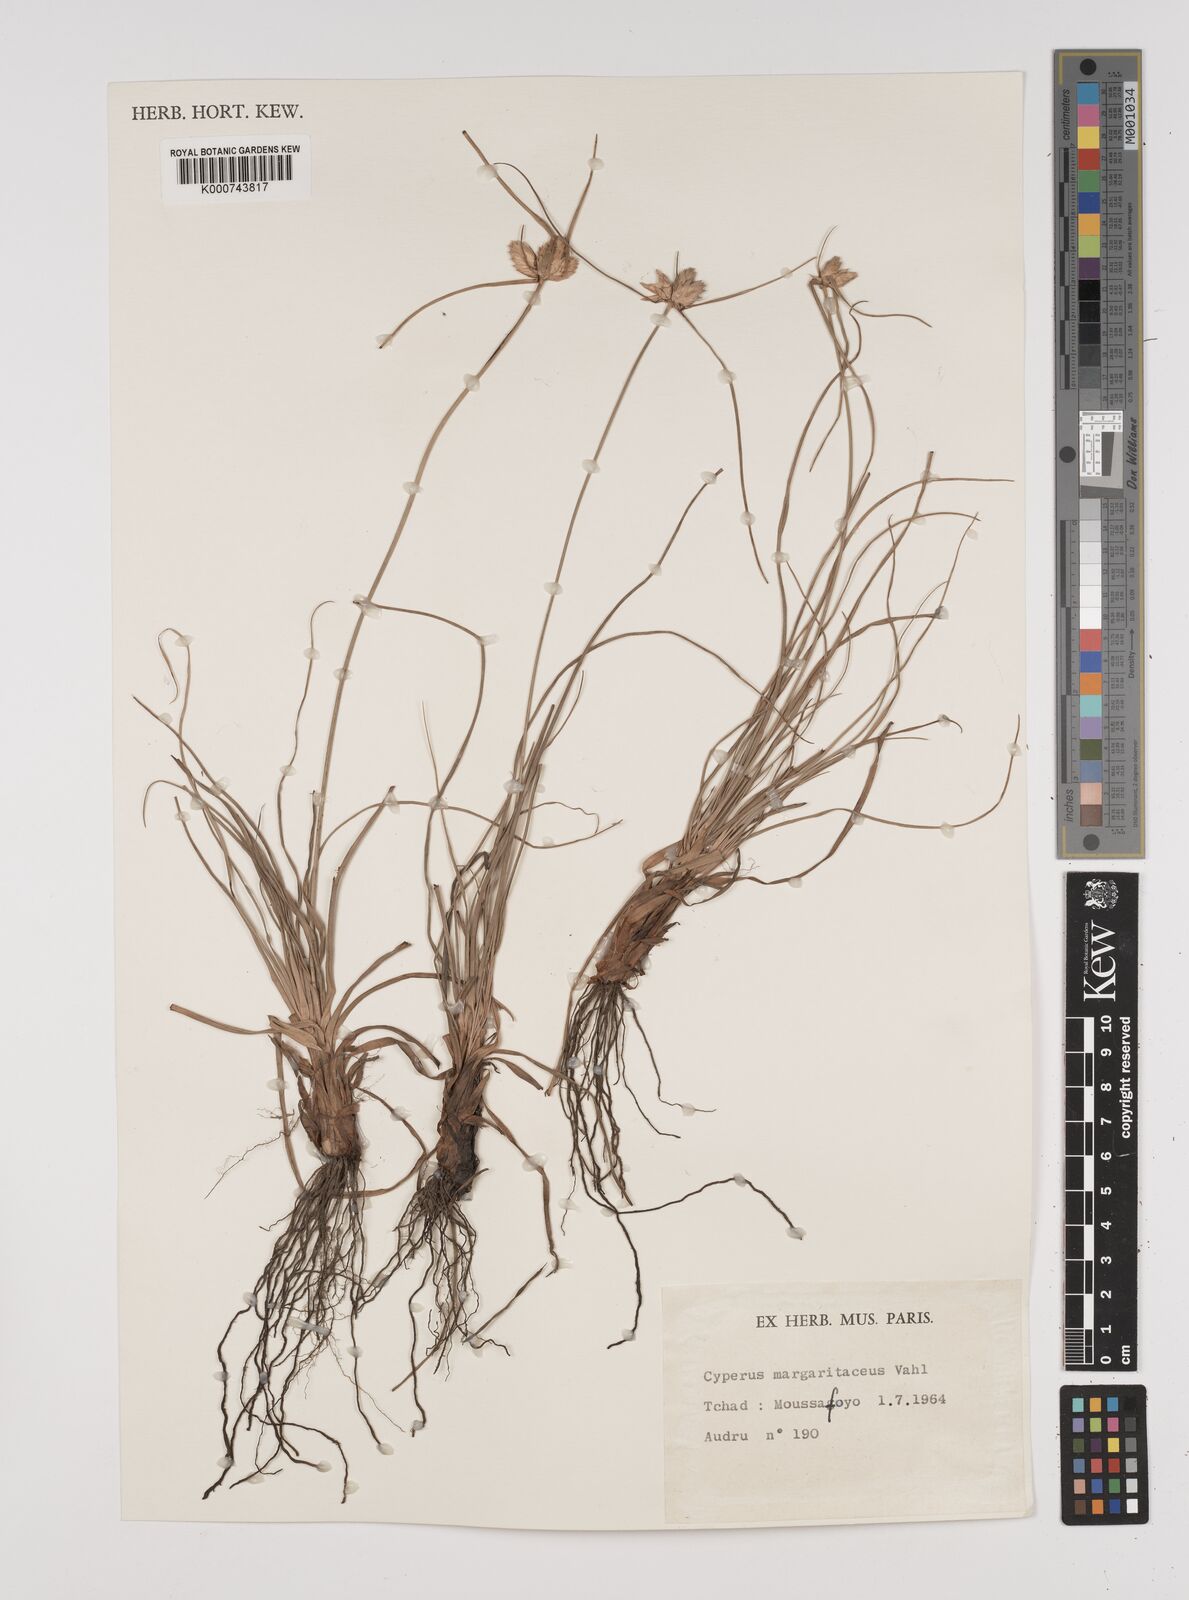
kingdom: Plantae
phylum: Tracheophyta
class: Liliopsida
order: Poales
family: Cyperaceae
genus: Cyperus
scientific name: Cyperus margaritaceus
